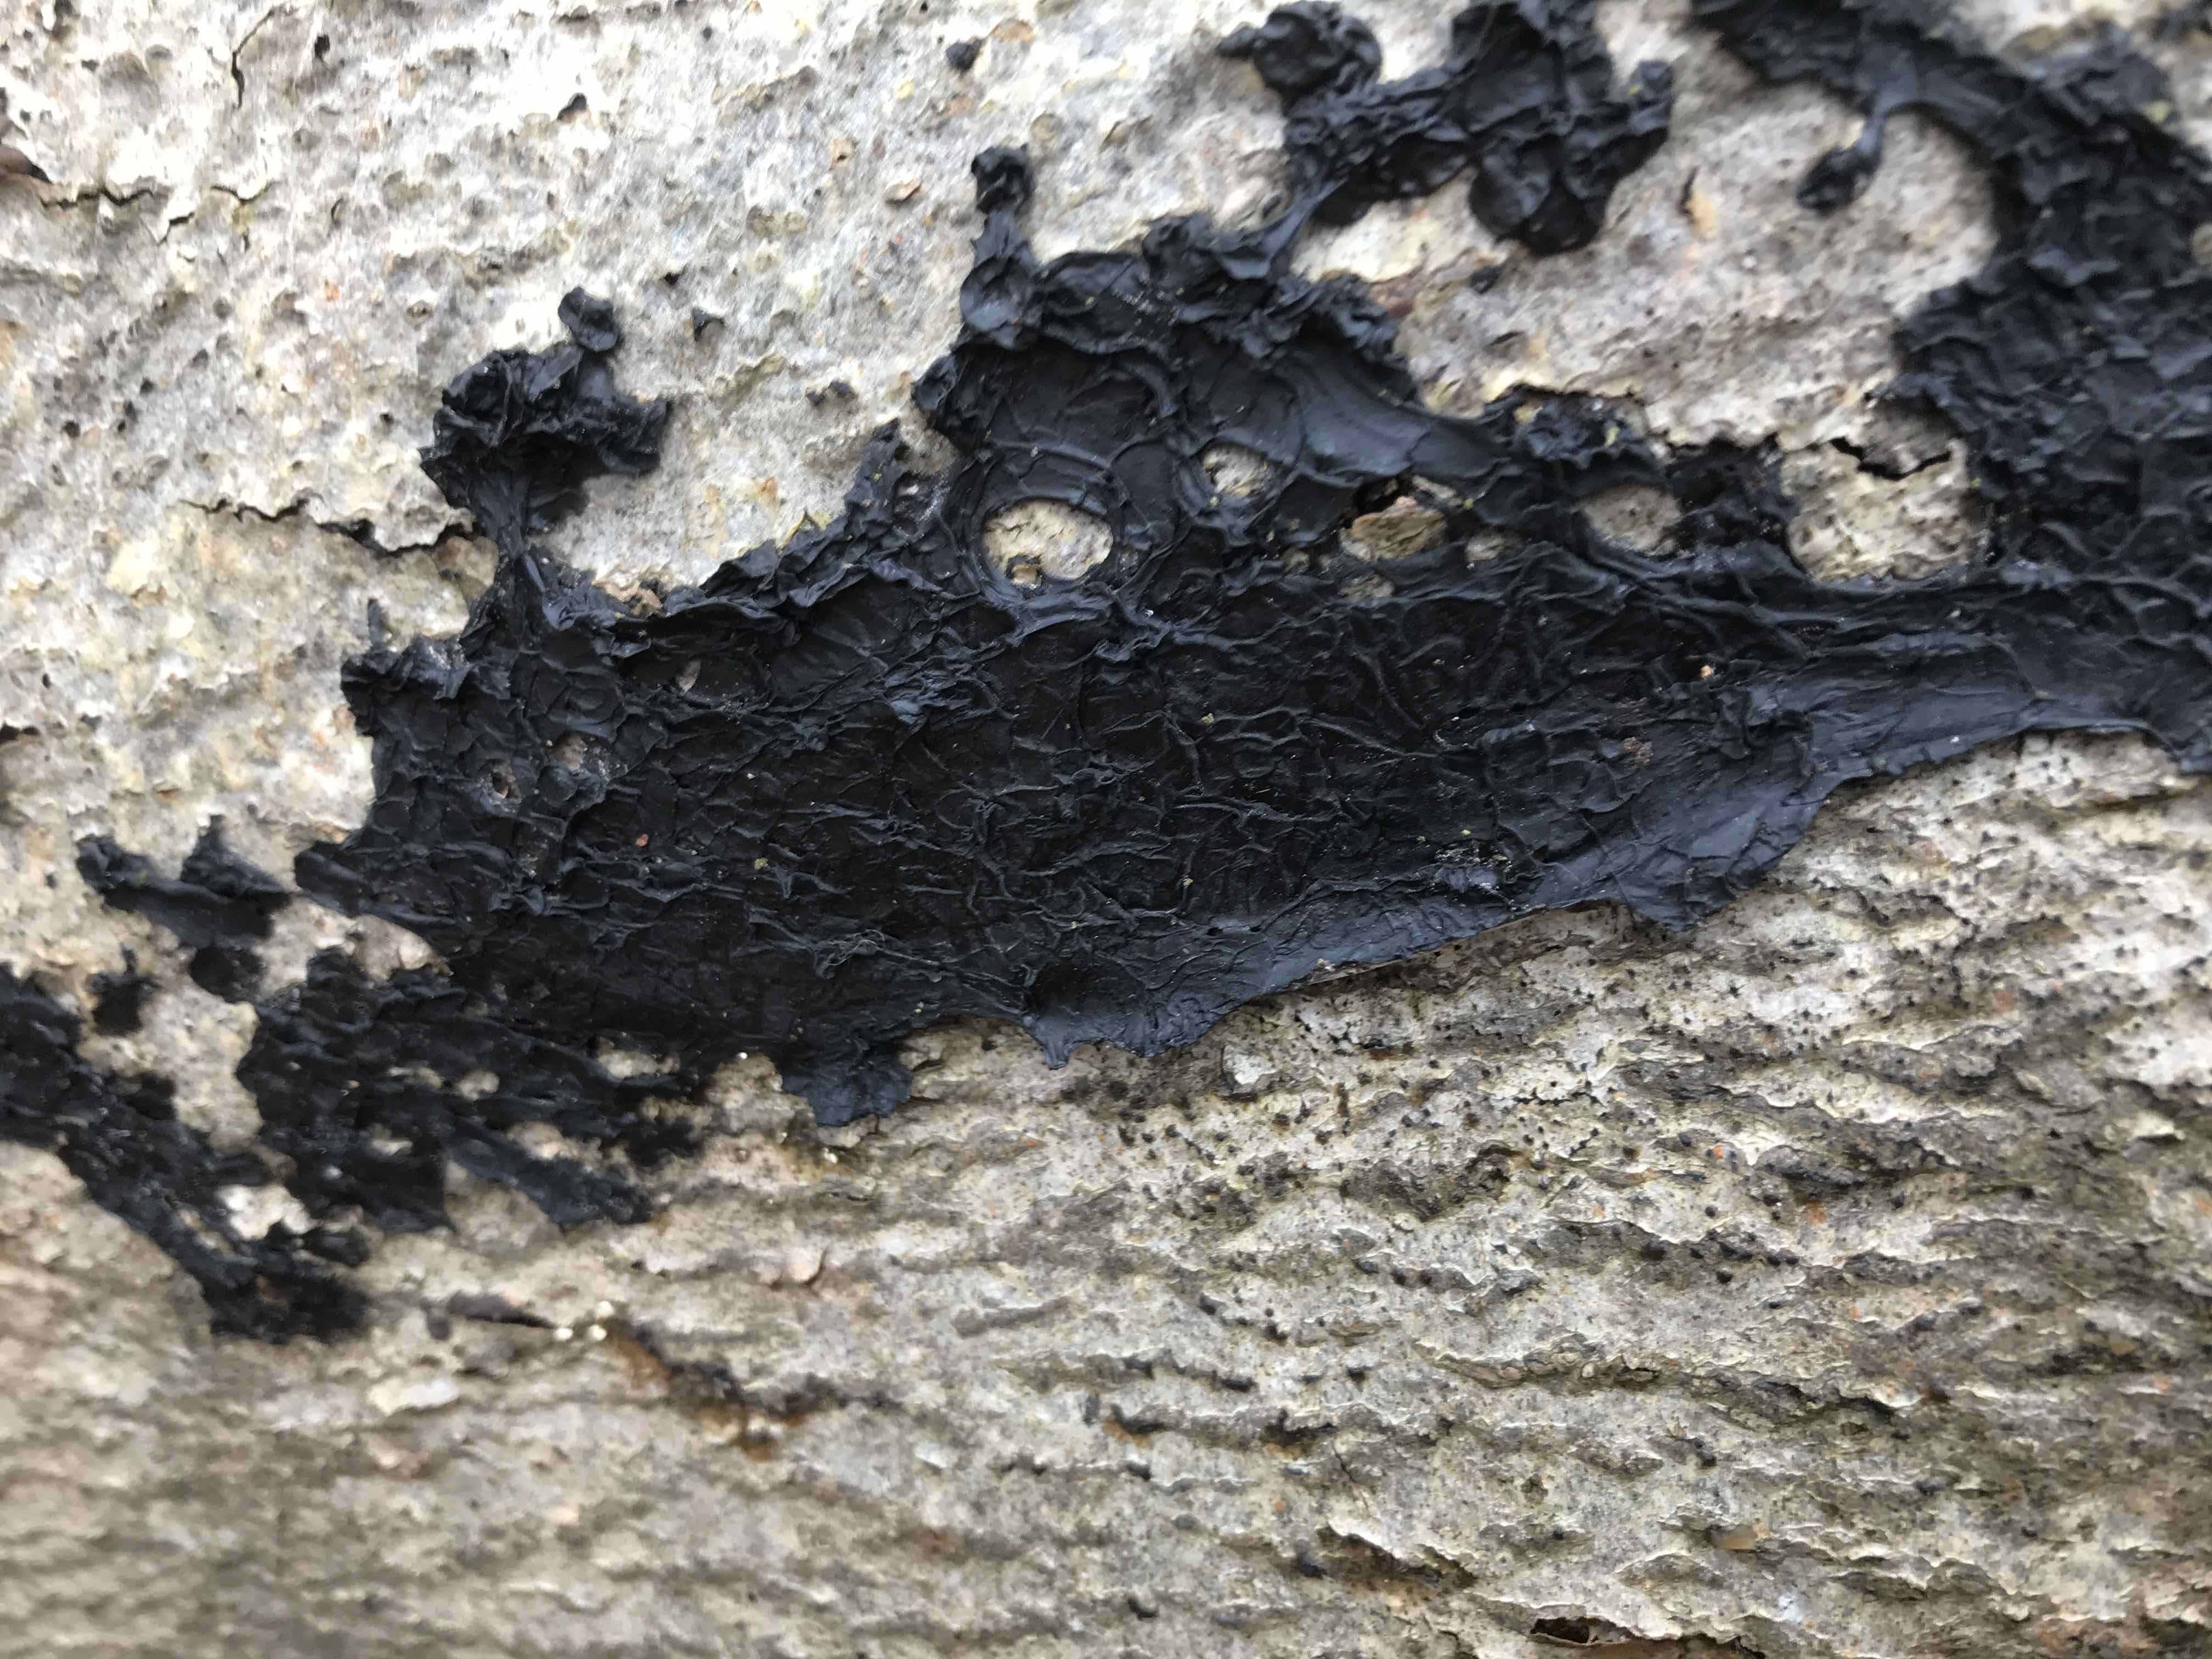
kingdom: Fungi
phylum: Basidiomycota
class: Agaricomycetes
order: Auriculariales
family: Auriculariaceae
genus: Exidia
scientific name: Exidia nigricans
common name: almindelig bævretop
